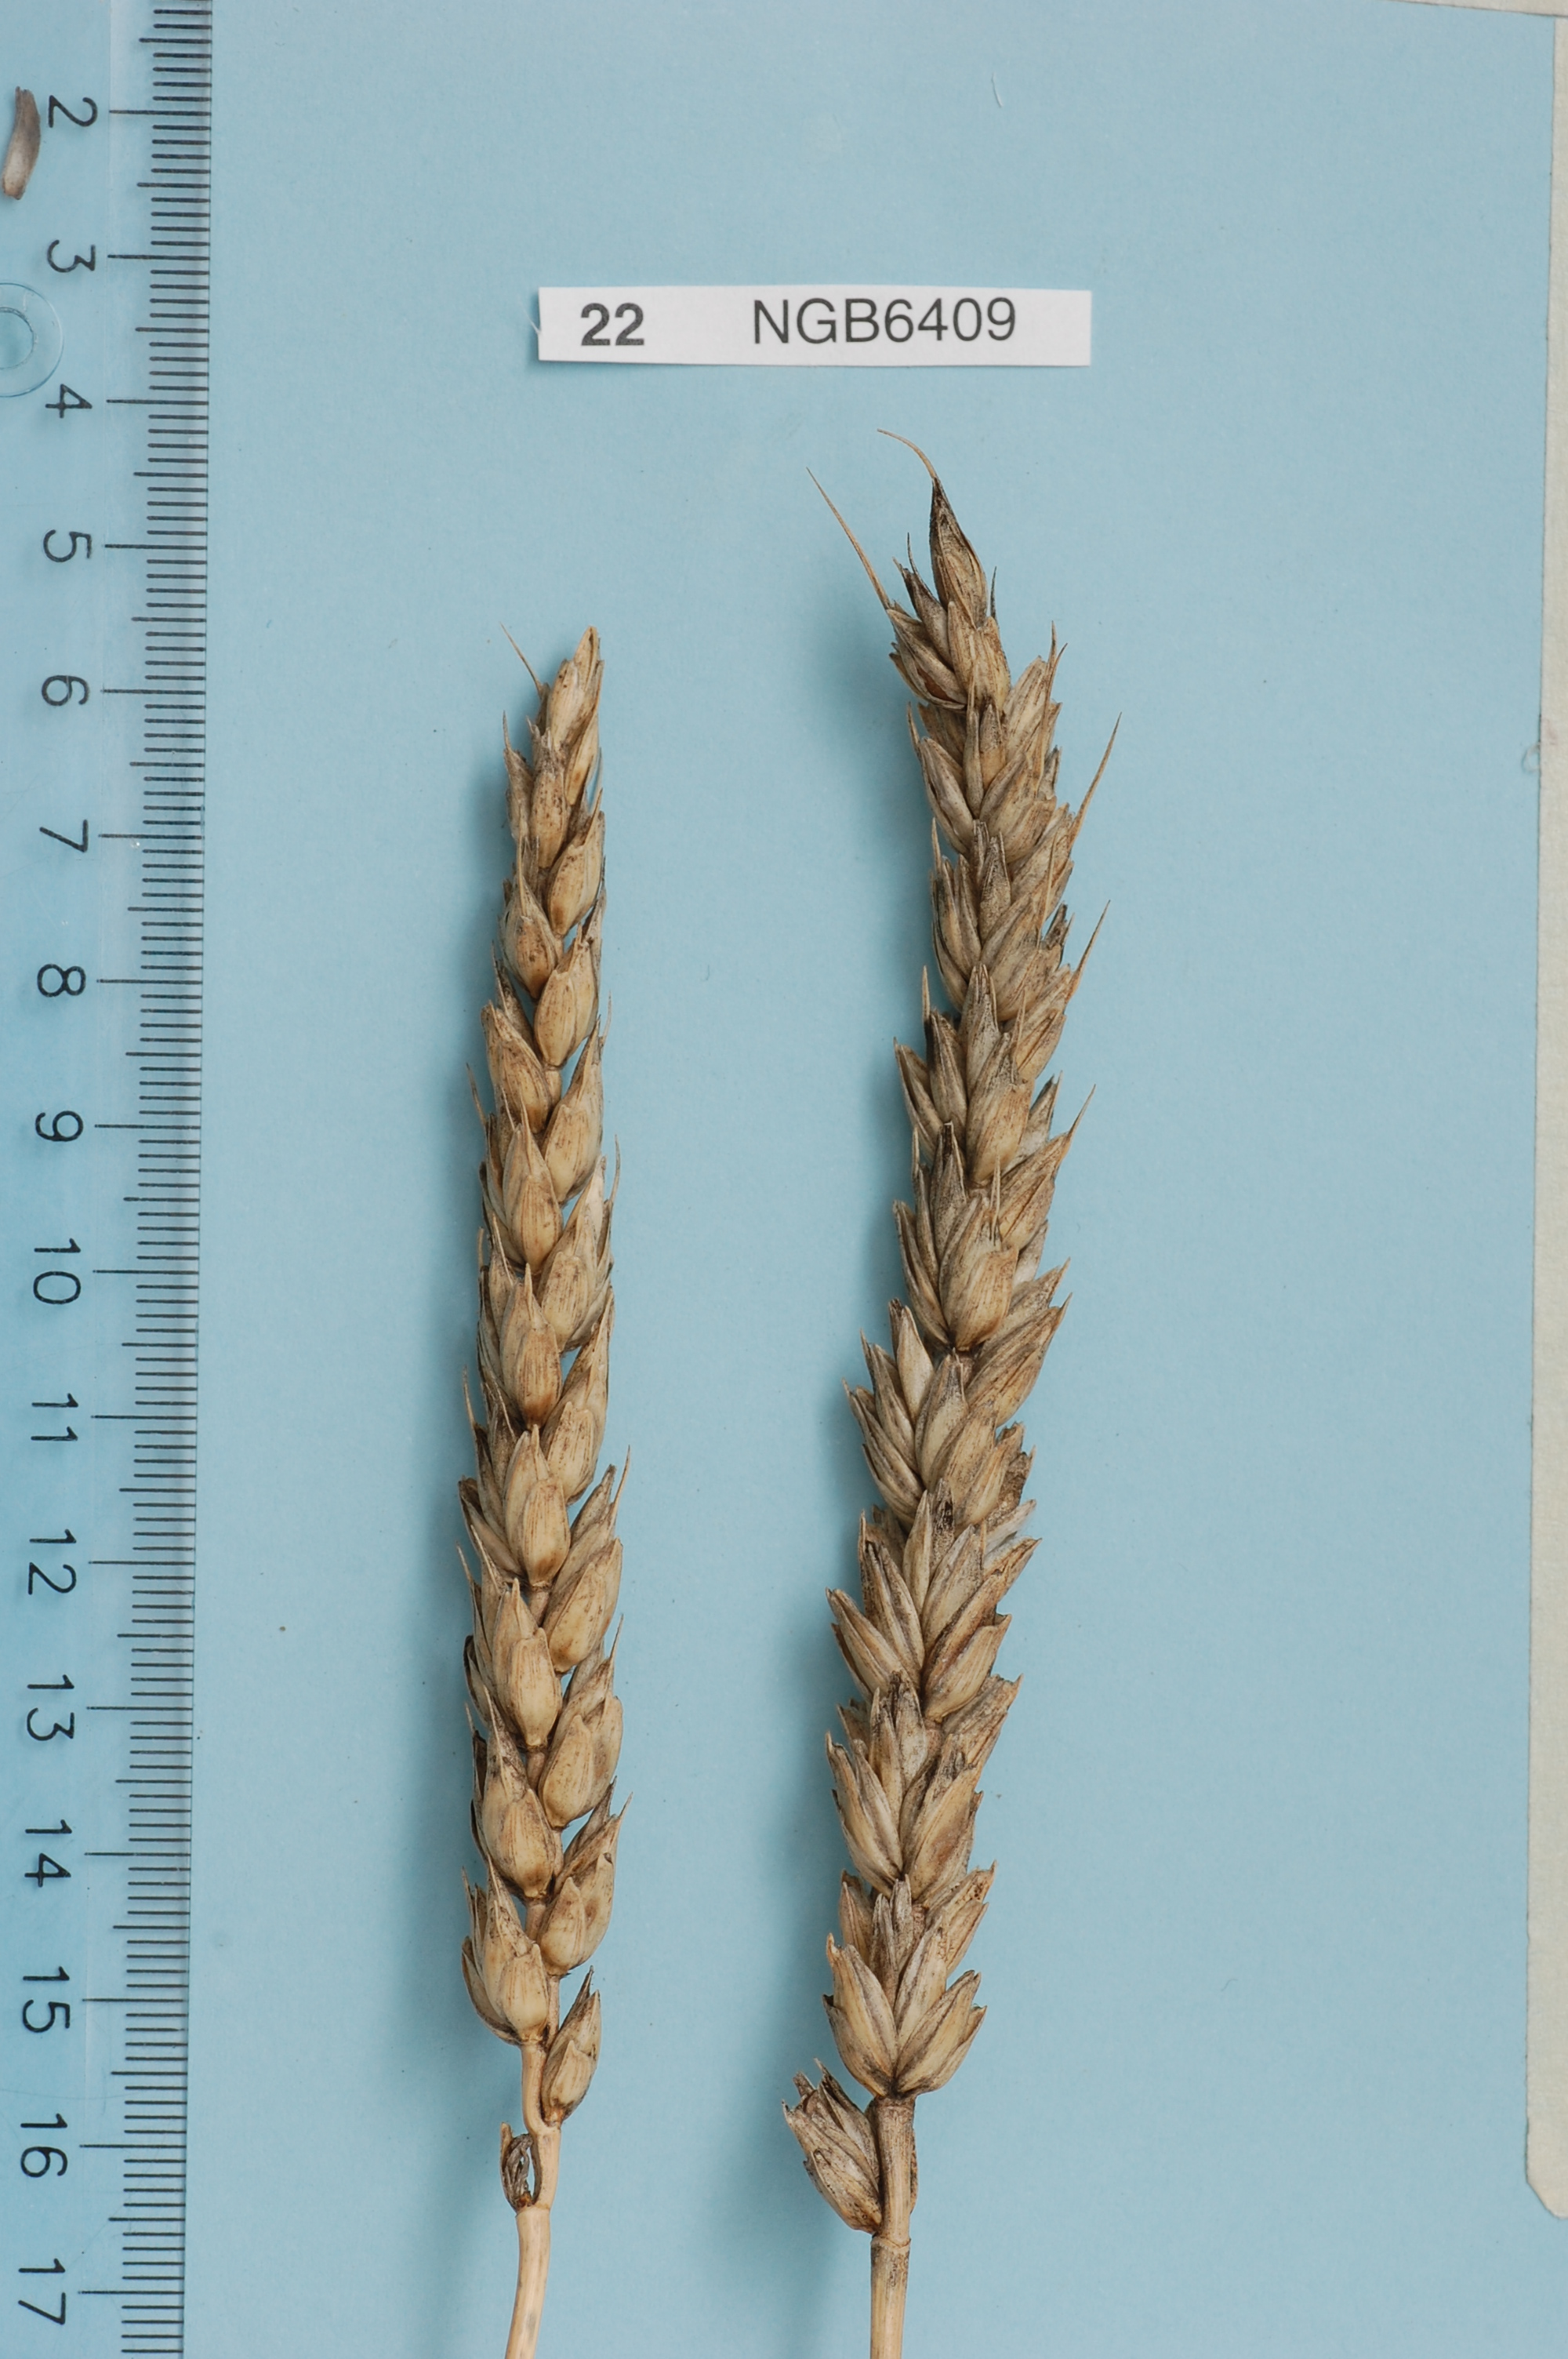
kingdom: Plantae
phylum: Tracheophyta
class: Liliopsida
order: Poales
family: Poaceae
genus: Triticum
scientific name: Triticum aestivum
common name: Common wheat
